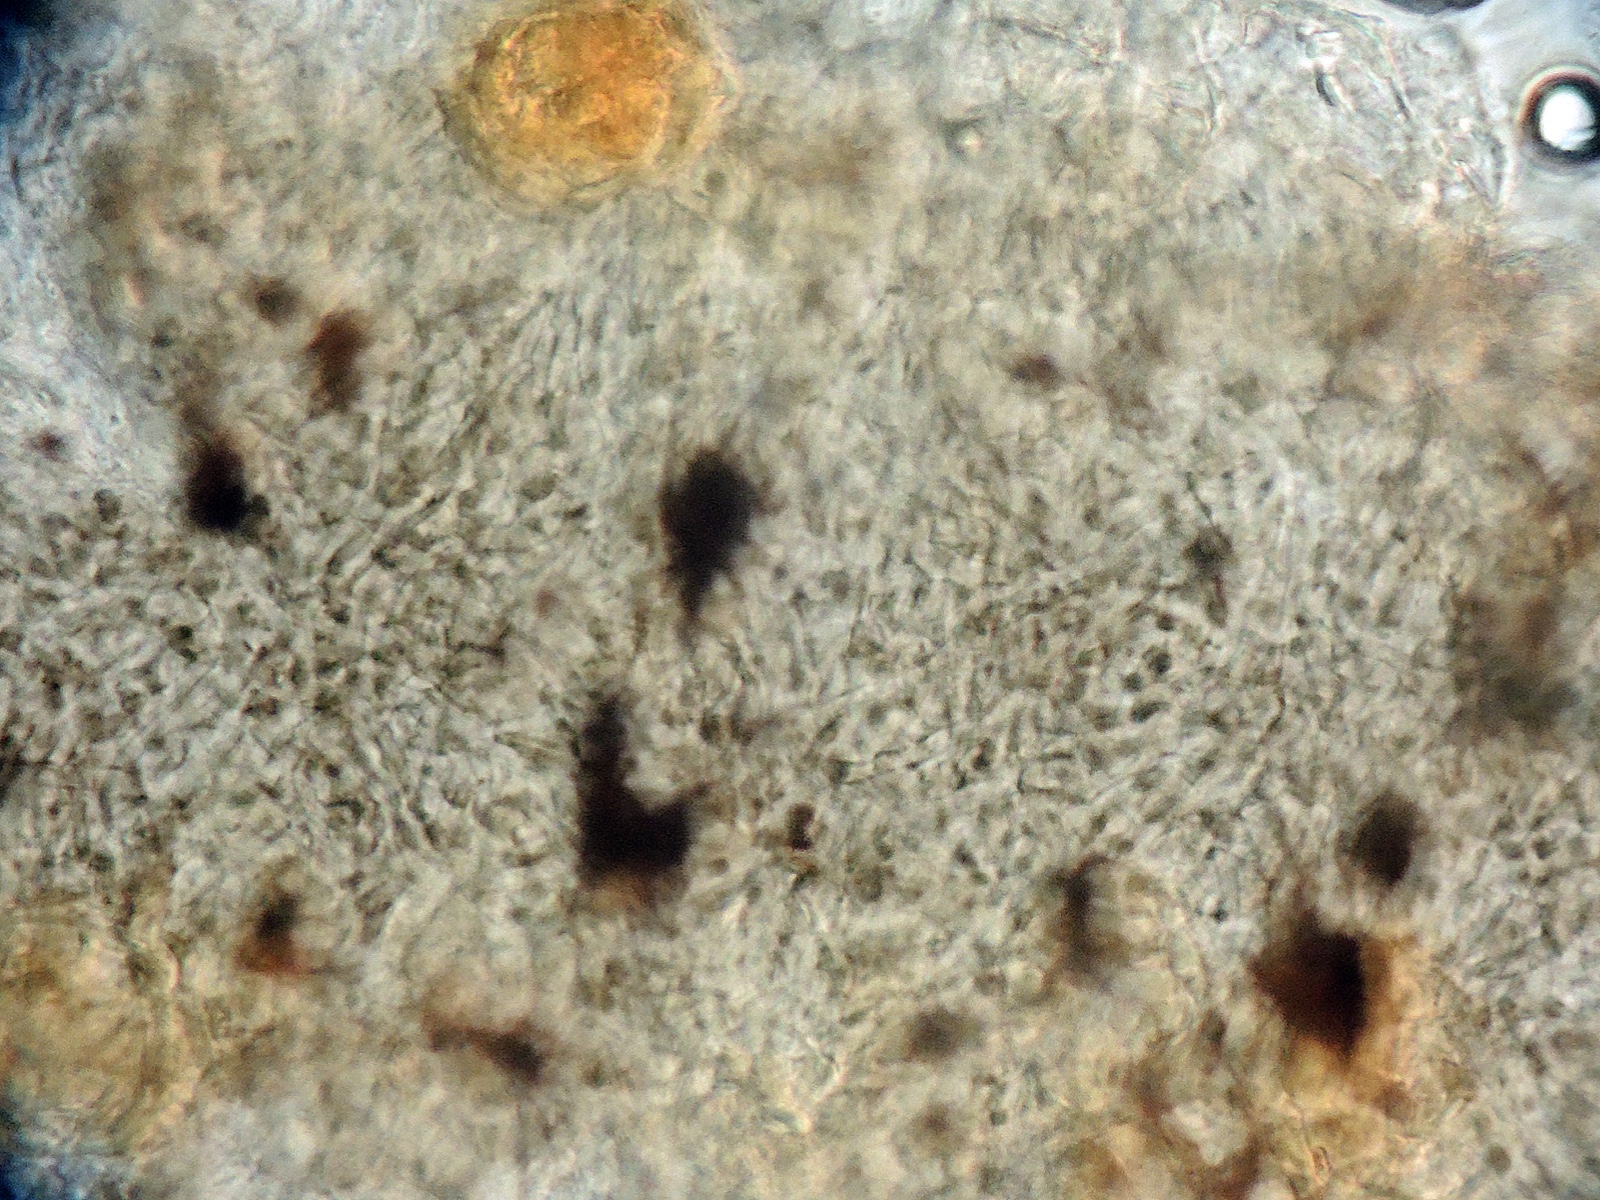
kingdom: Fungi
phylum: Ascomycota
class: Dothideomycetes
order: Pleosporales
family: Didymosphaeriaceae
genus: Didymosphaeria
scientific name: Didymosphaeria
